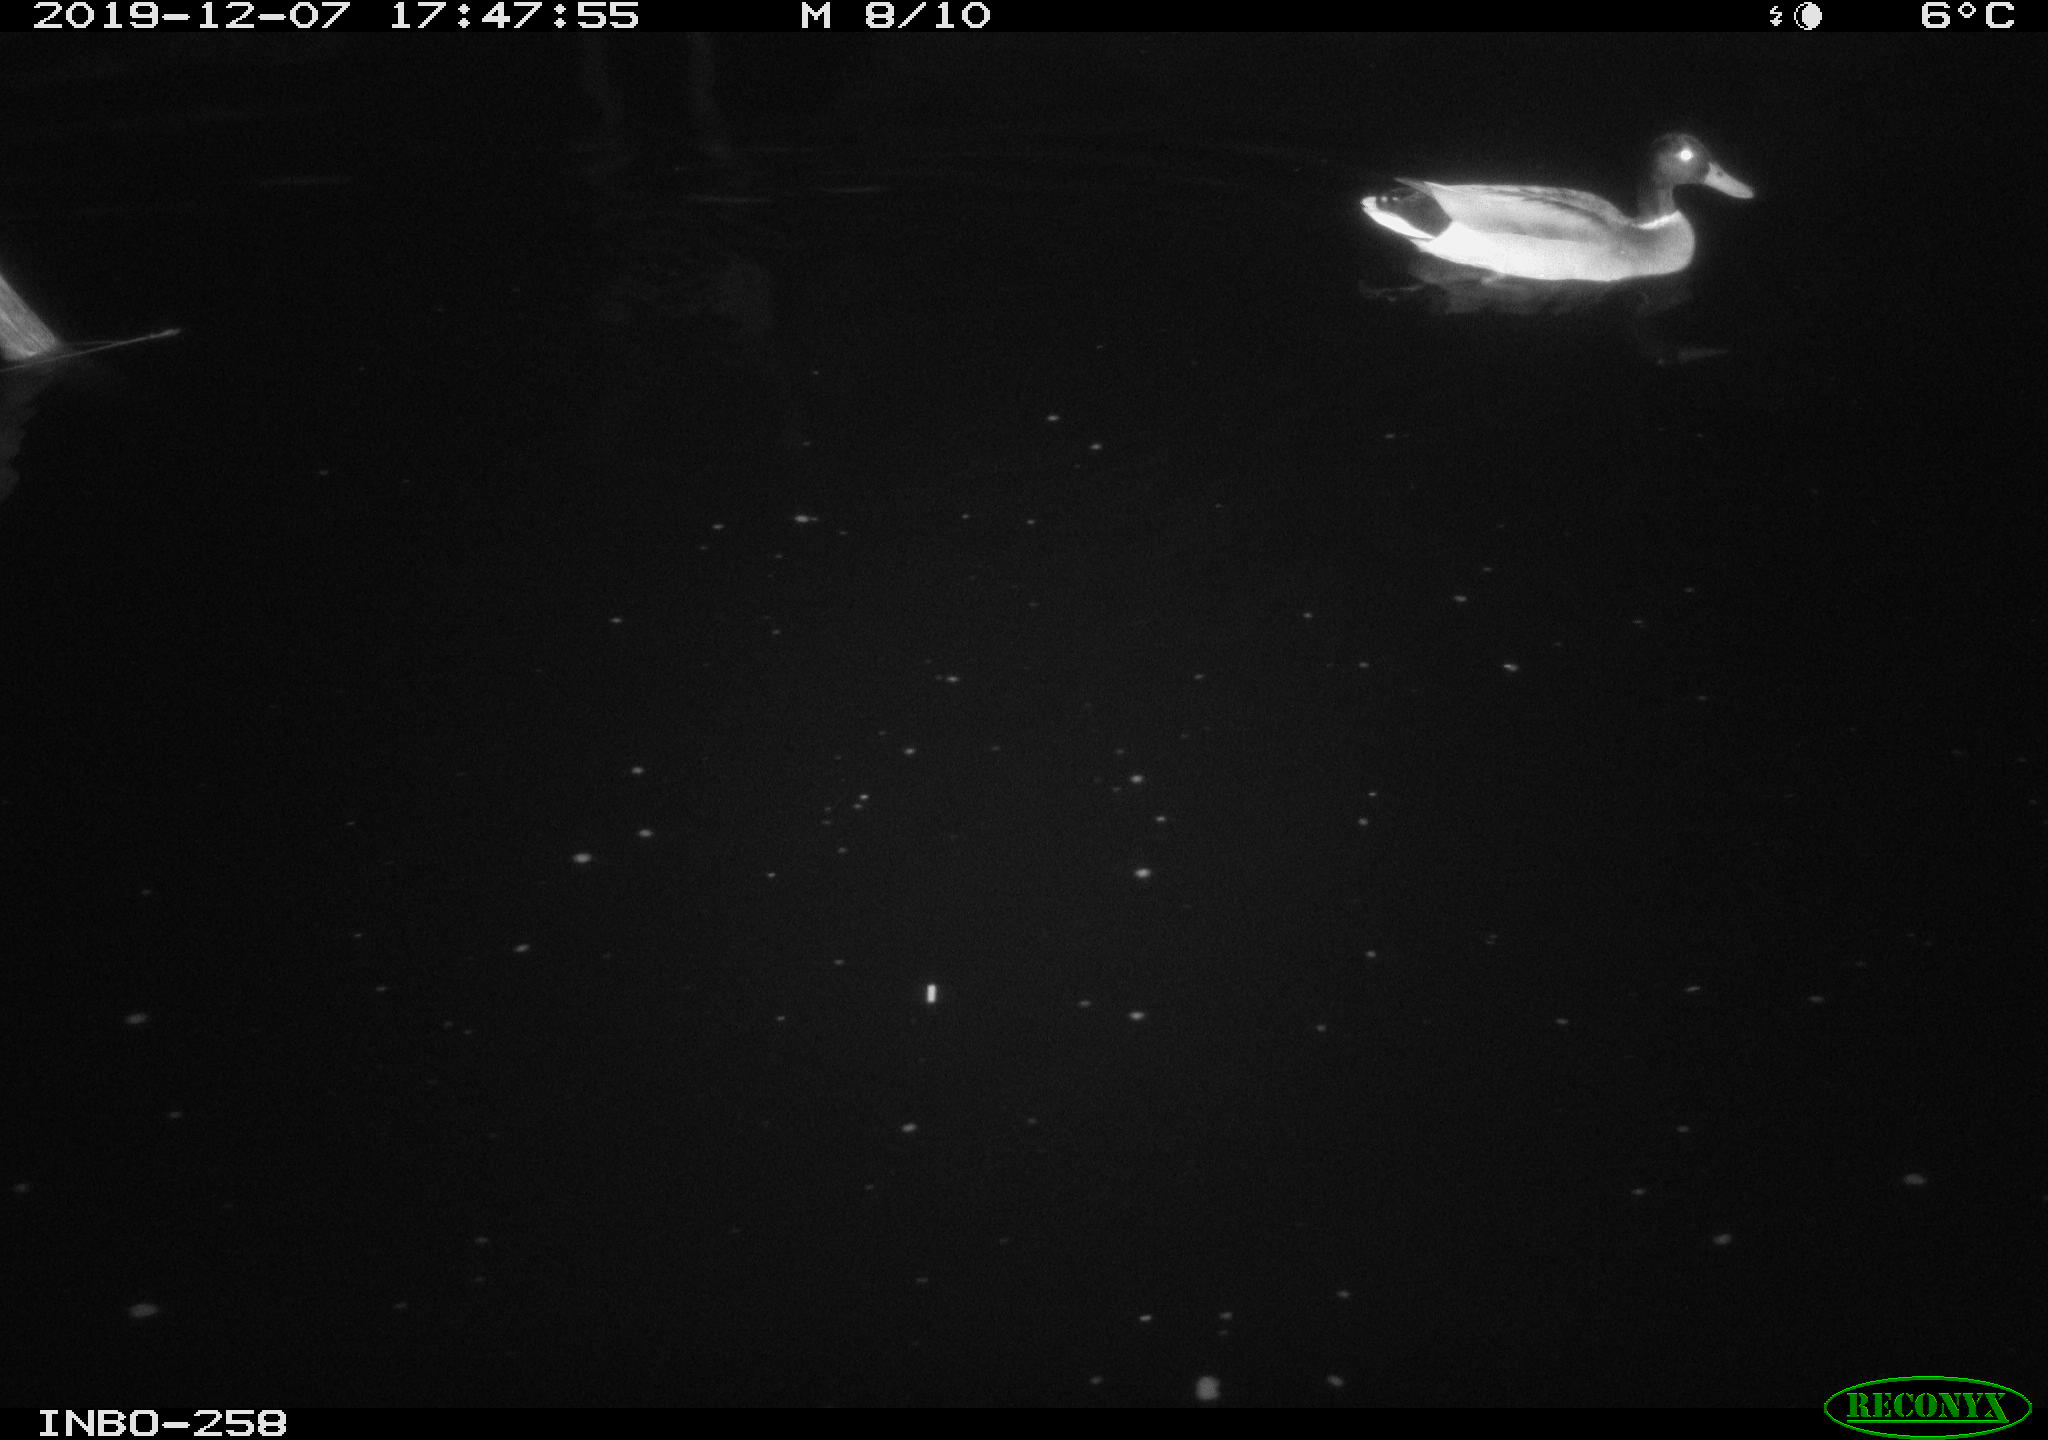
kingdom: Animalia
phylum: Chordata
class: Aves
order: Anseriformes
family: Anatidae
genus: Anas
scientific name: Anas platyrhynchos
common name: Mallard
